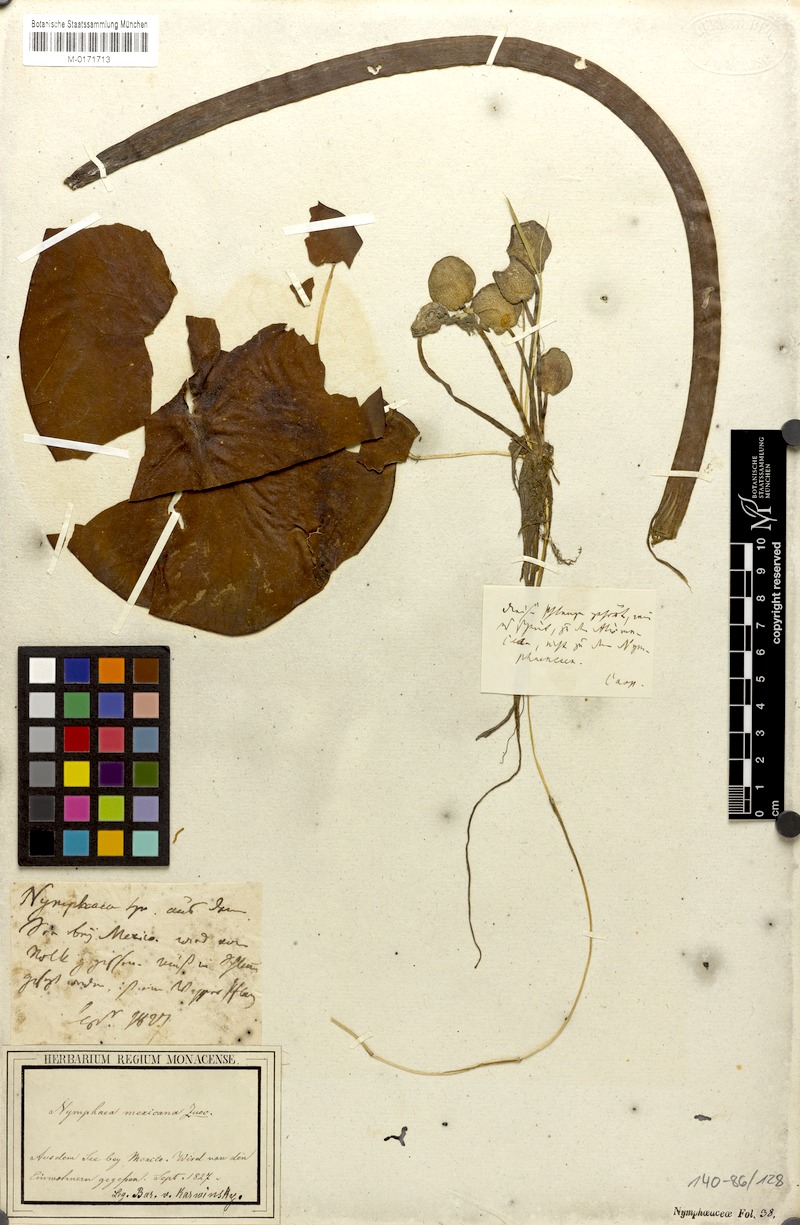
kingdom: Plantae
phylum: Tracheophyta
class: Magnoliopsida
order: Nymphaeales
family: Nymphaeaceae
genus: Nymphaea
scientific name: Nymphaea mexicana
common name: Banana water-lily
